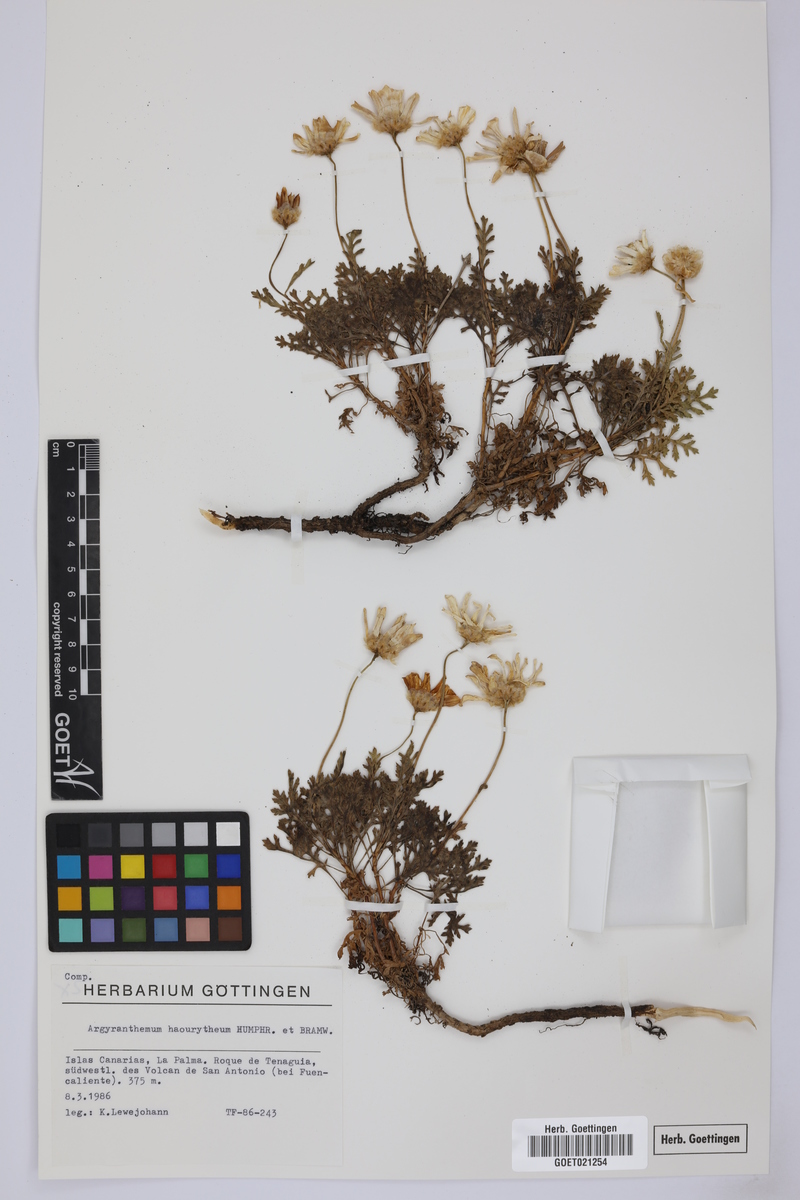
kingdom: Plantae
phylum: Tracheophyta
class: Magnoliopsida
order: Asterales
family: Asteraceae
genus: Argyranthemum
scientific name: Argyranthemum haouarytheum
